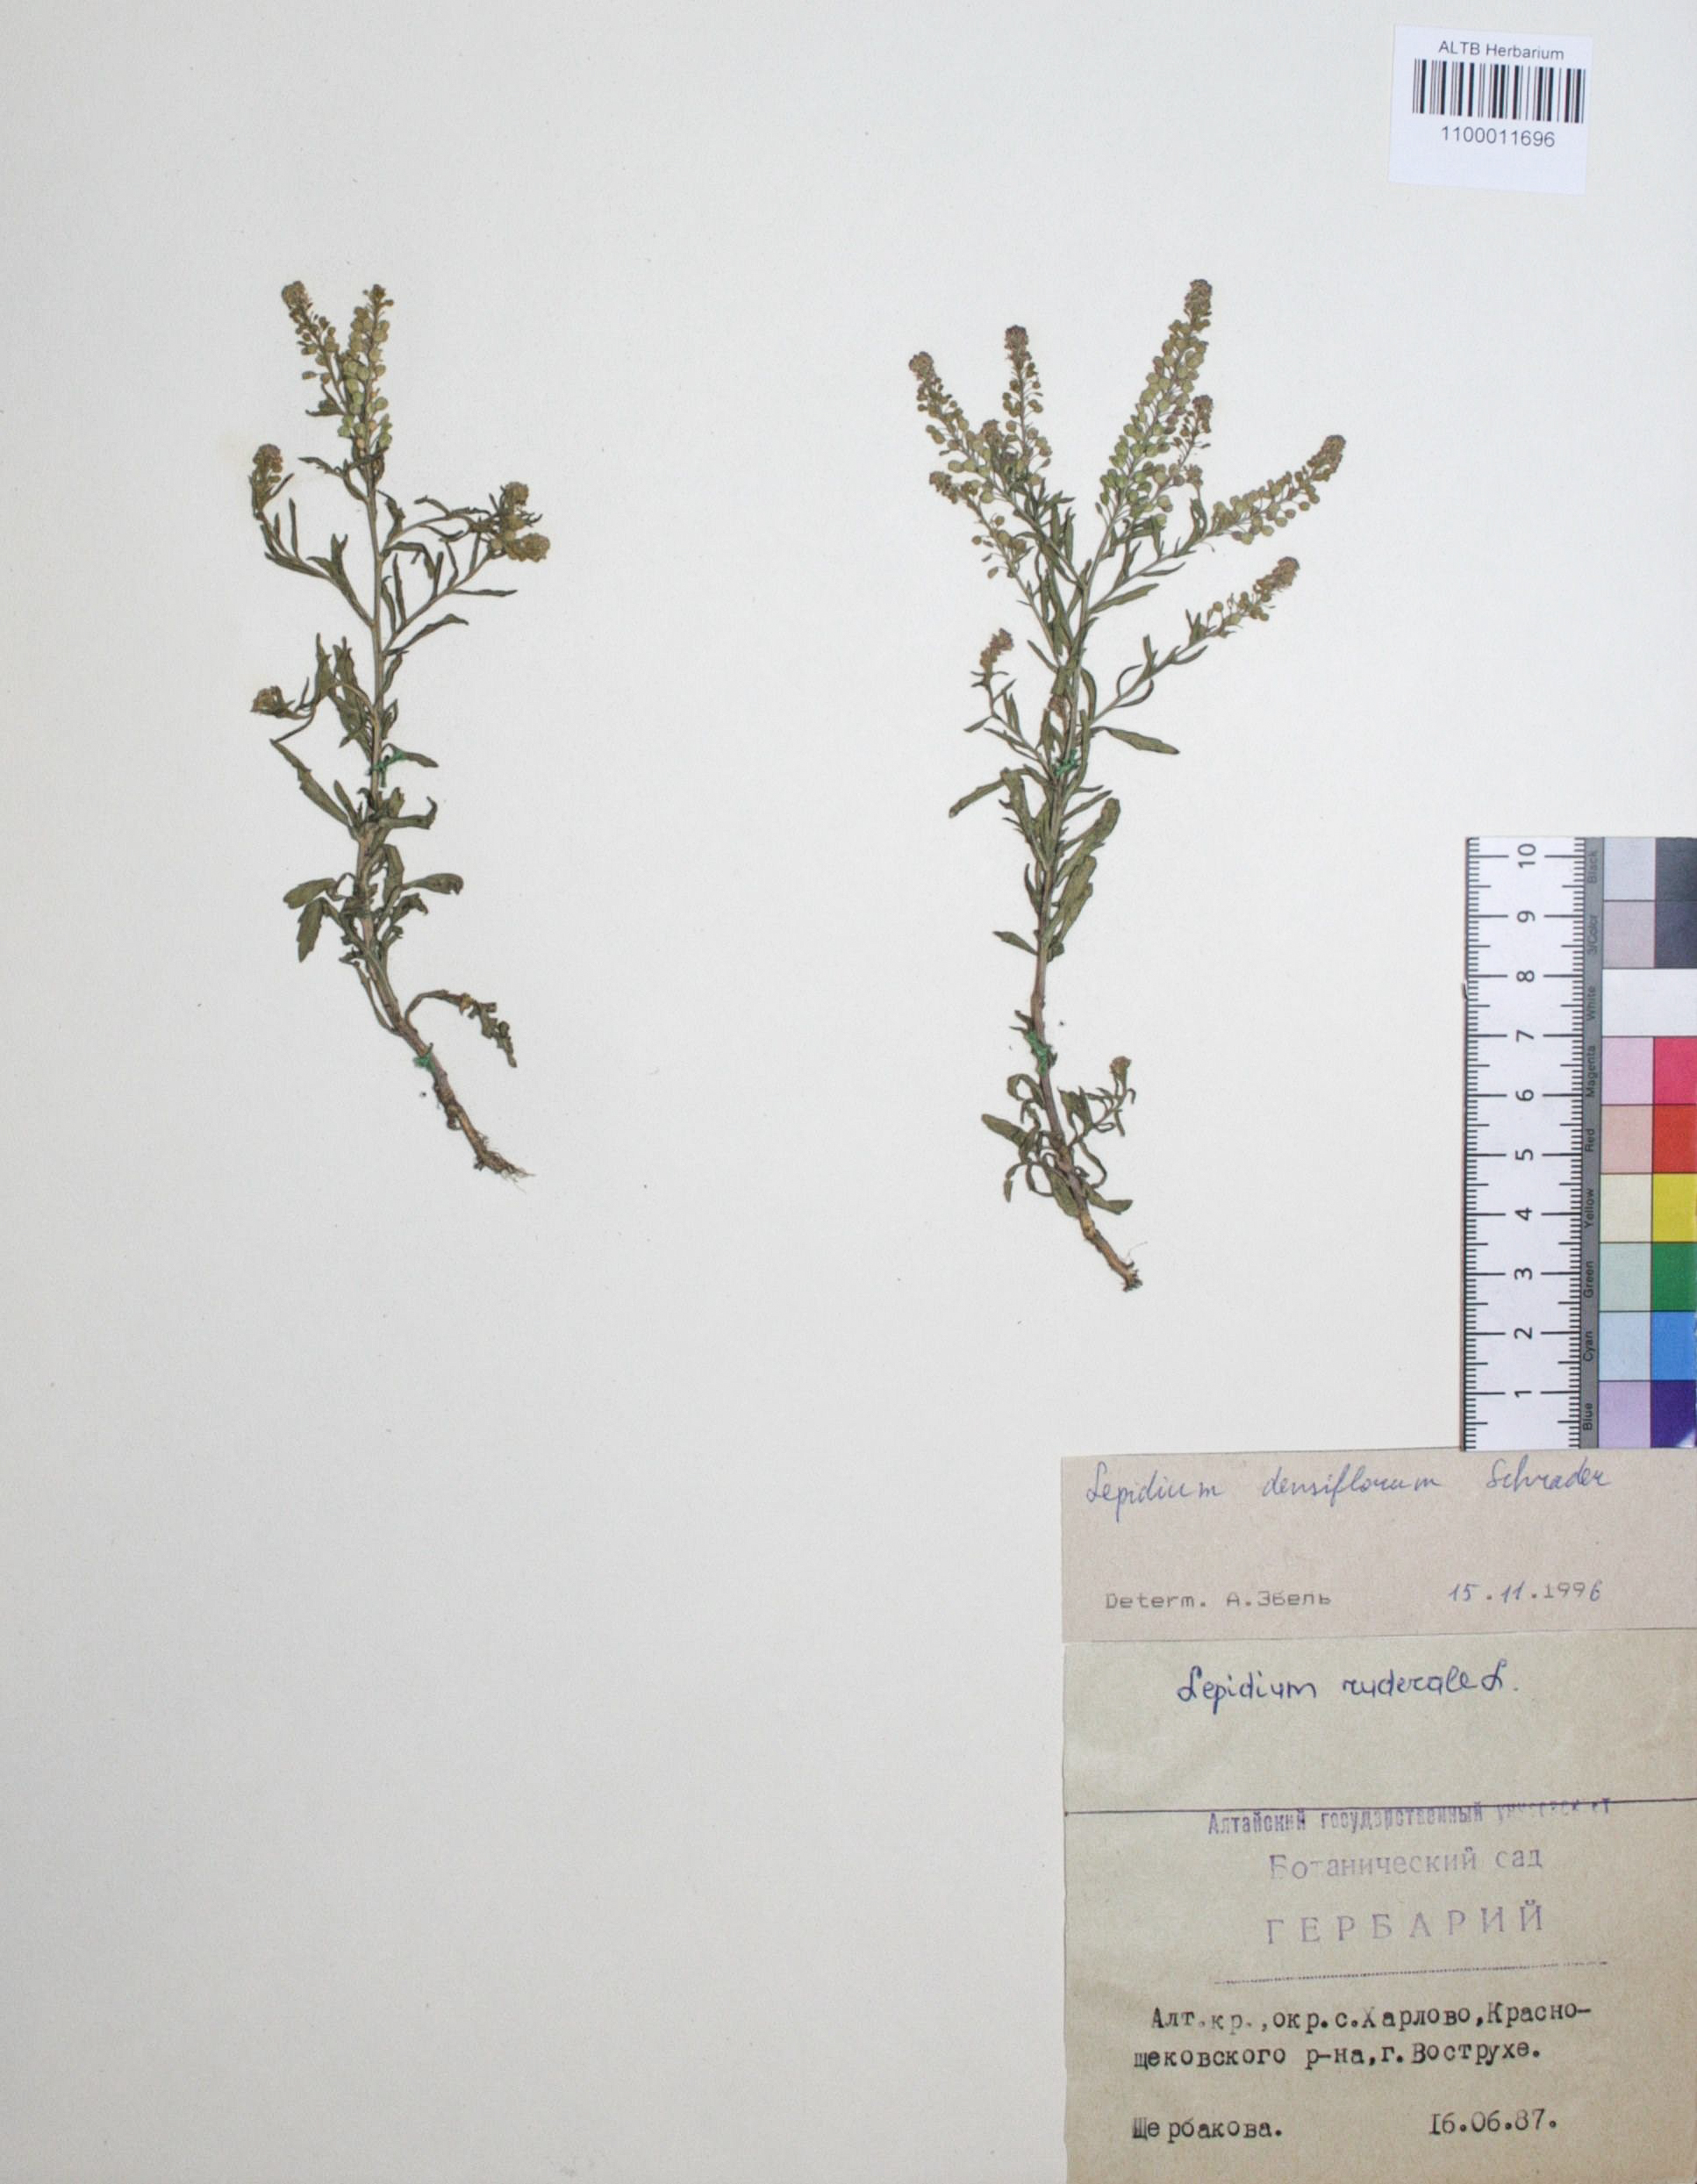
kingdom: Plantae
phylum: Tracheophyta
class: Magnoliopsida
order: Brassicales
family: Brassicaceae
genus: Lepidium
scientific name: Lepidium densiflorum
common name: Miner's pepperwort
